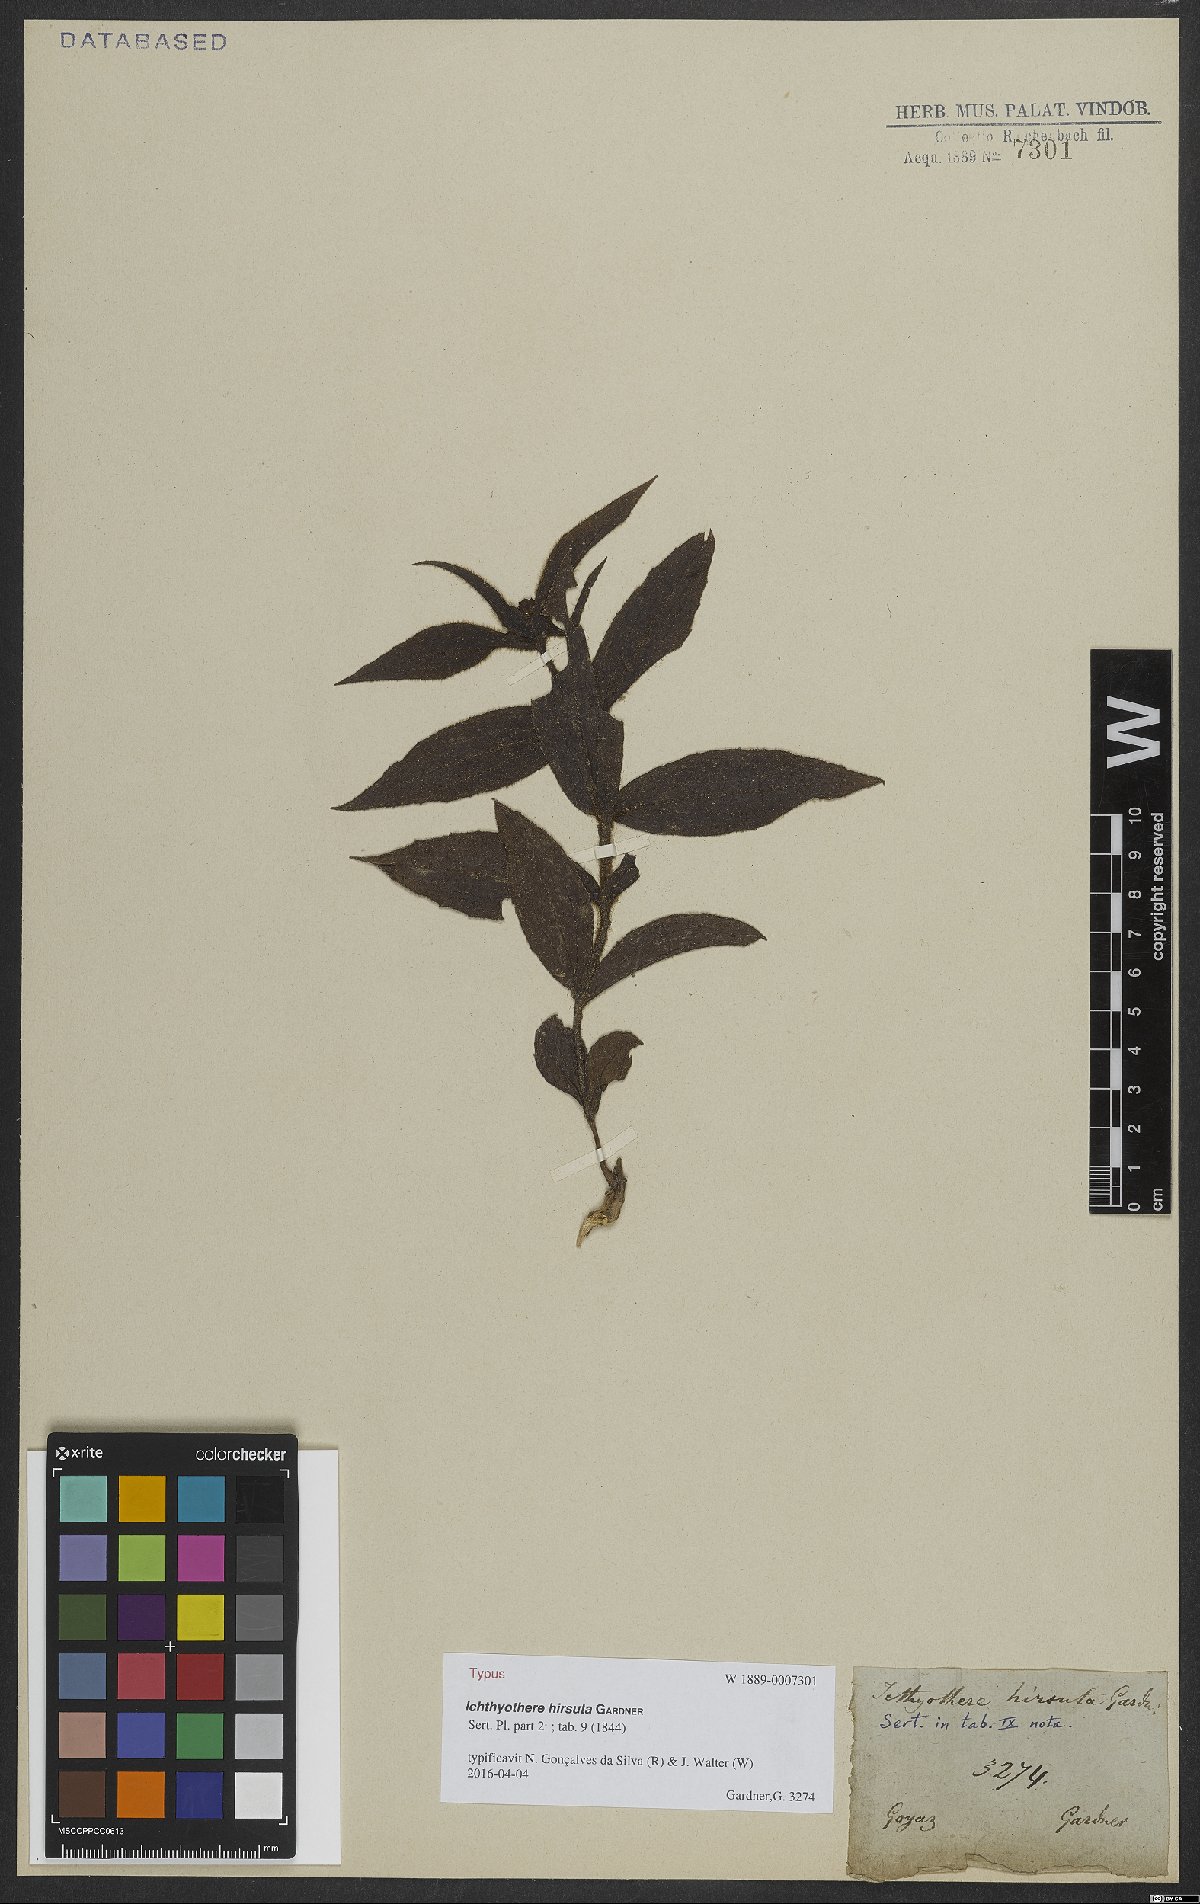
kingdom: Plantae
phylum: Tracheophyta
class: Magnoliopsida
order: Asterales
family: Asteraceae
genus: Ichthyothere
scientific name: Ichthyothere hirsuta
